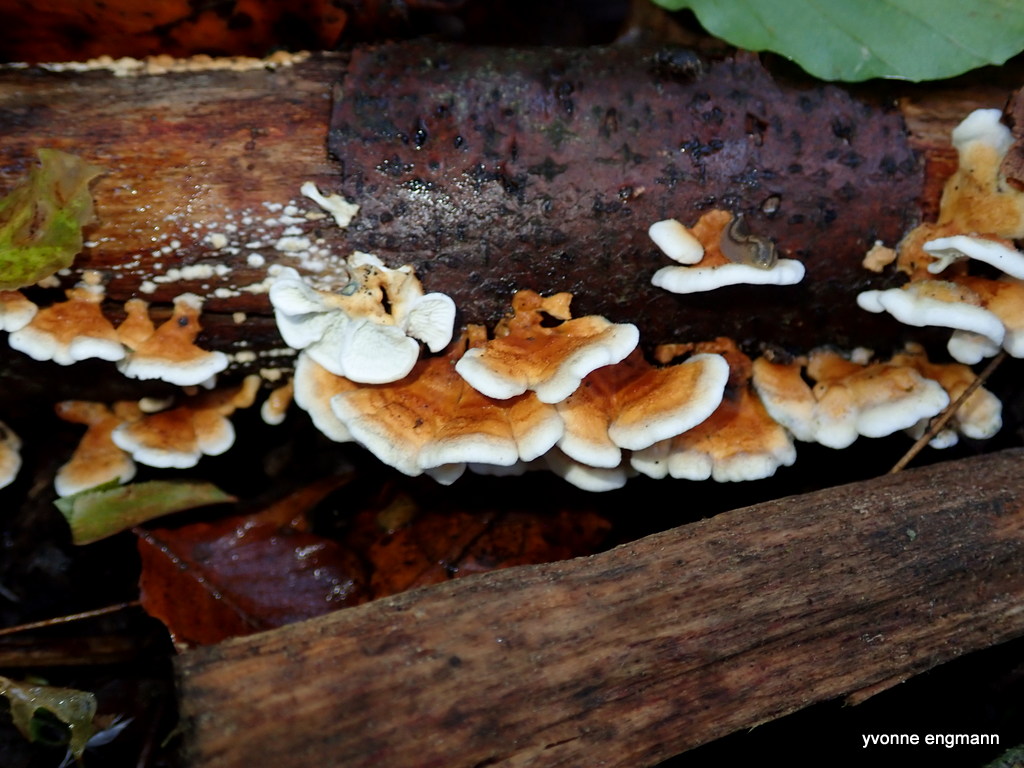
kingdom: Fungi
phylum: Basidiomycota
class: Agaricomycetes
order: Amylocorticiales
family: Amylocorticiaceae
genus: Plicaturopsis
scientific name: Plicaturopsis crispa
